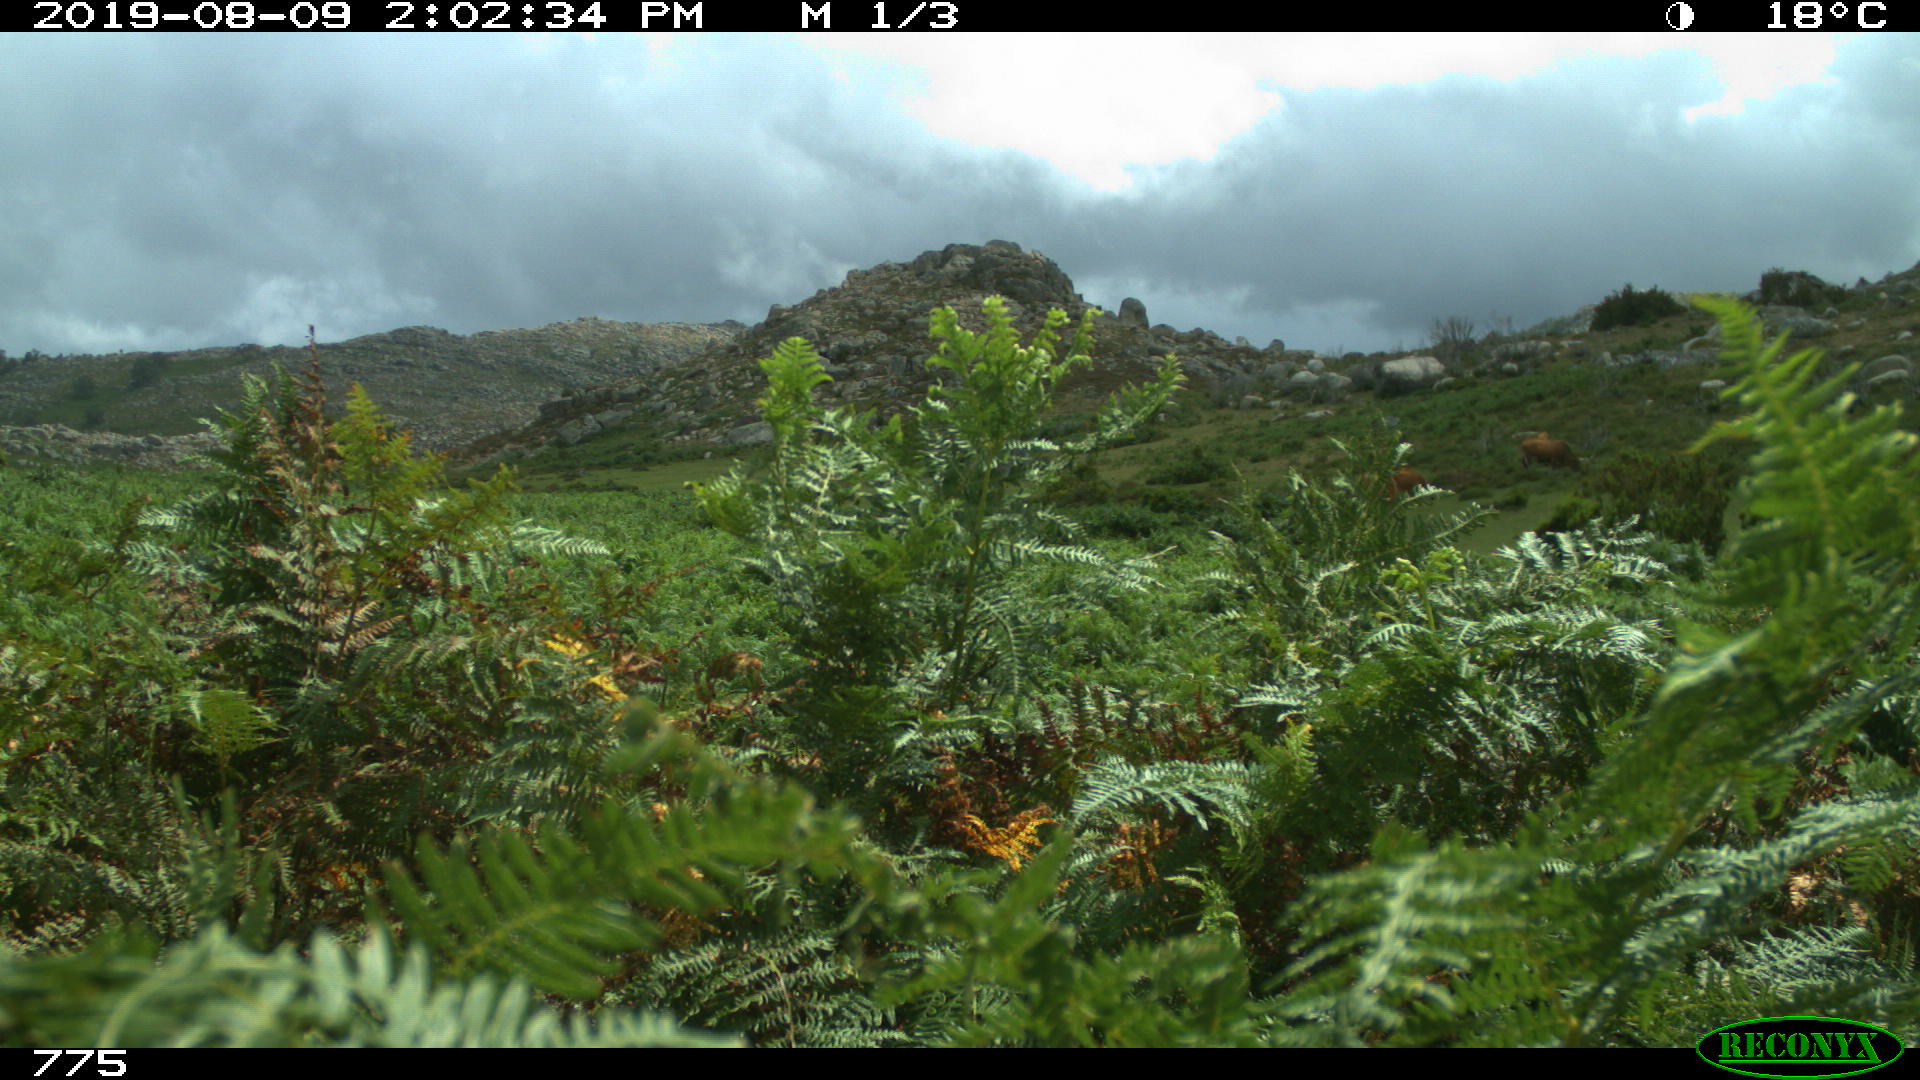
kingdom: Animalia
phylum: Chordata
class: Mammalia
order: Artiodactyla
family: Bovidae
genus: Bos
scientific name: Bos taurus
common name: Domesticated cattle
